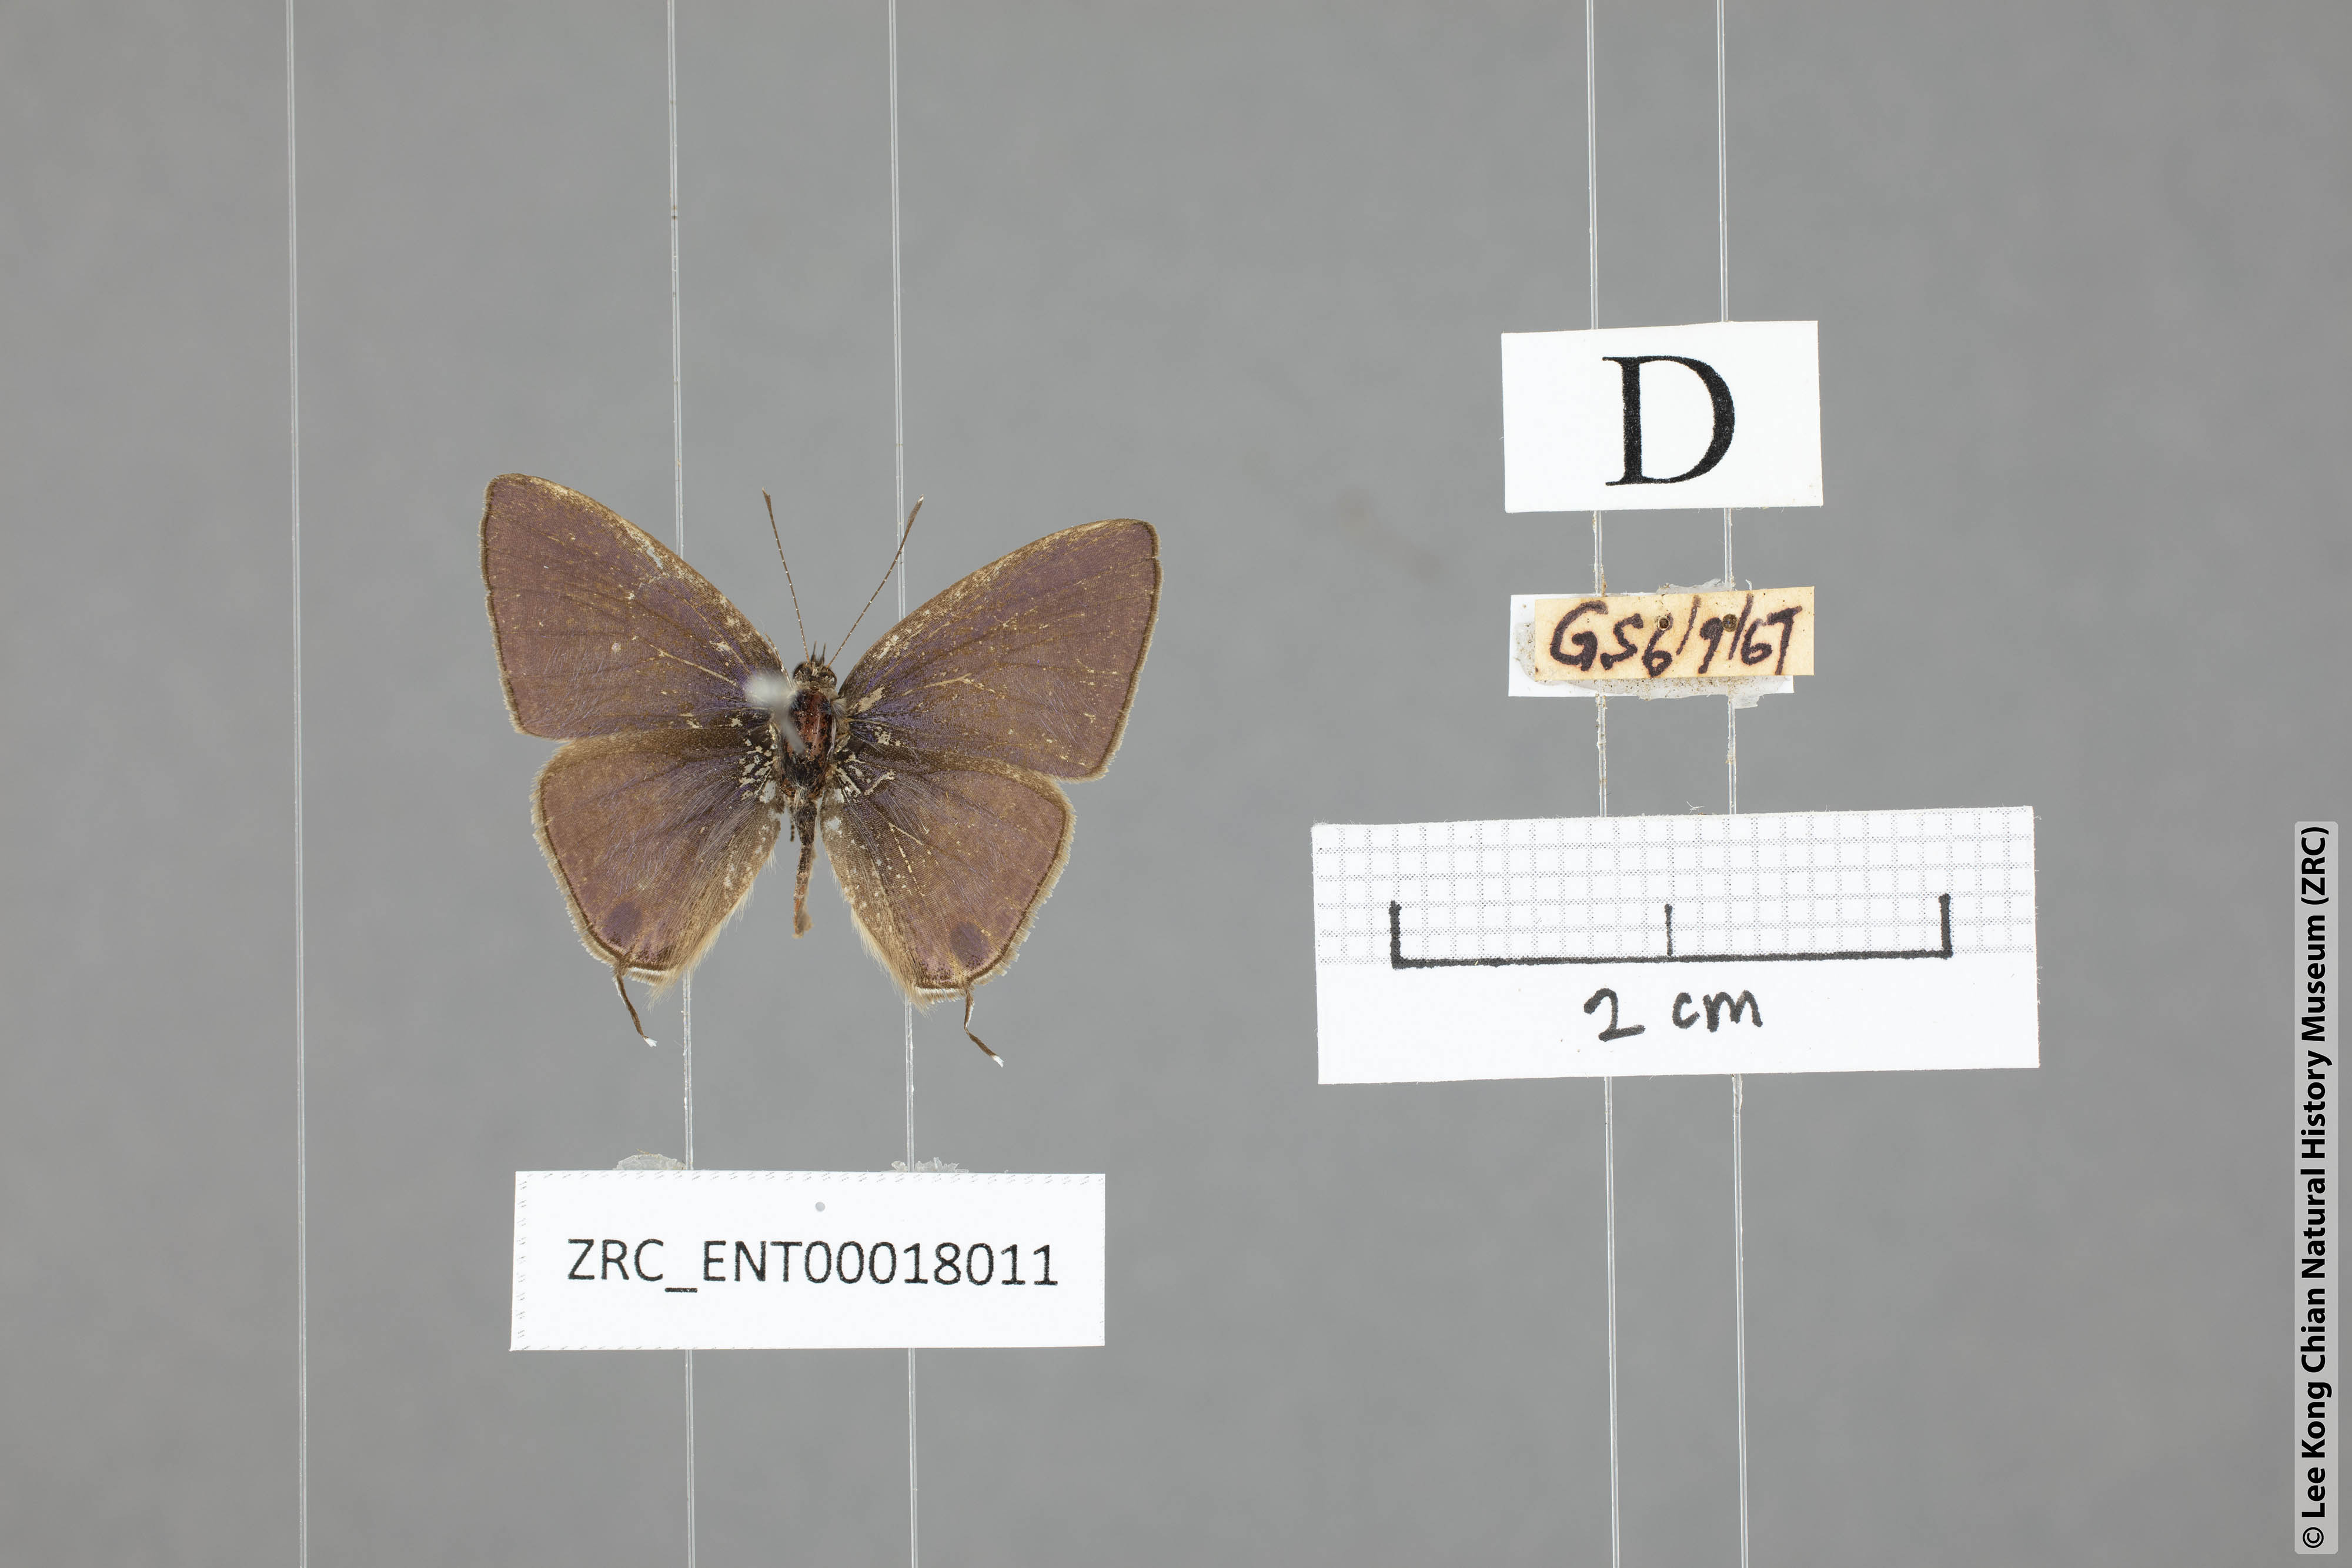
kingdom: Animalia
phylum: Arthropoda
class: Insecta
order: Lepidoptera
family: Lycaenidae
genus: Ionolyce
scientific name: Ionolyce helicon
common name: Pointed line blue
